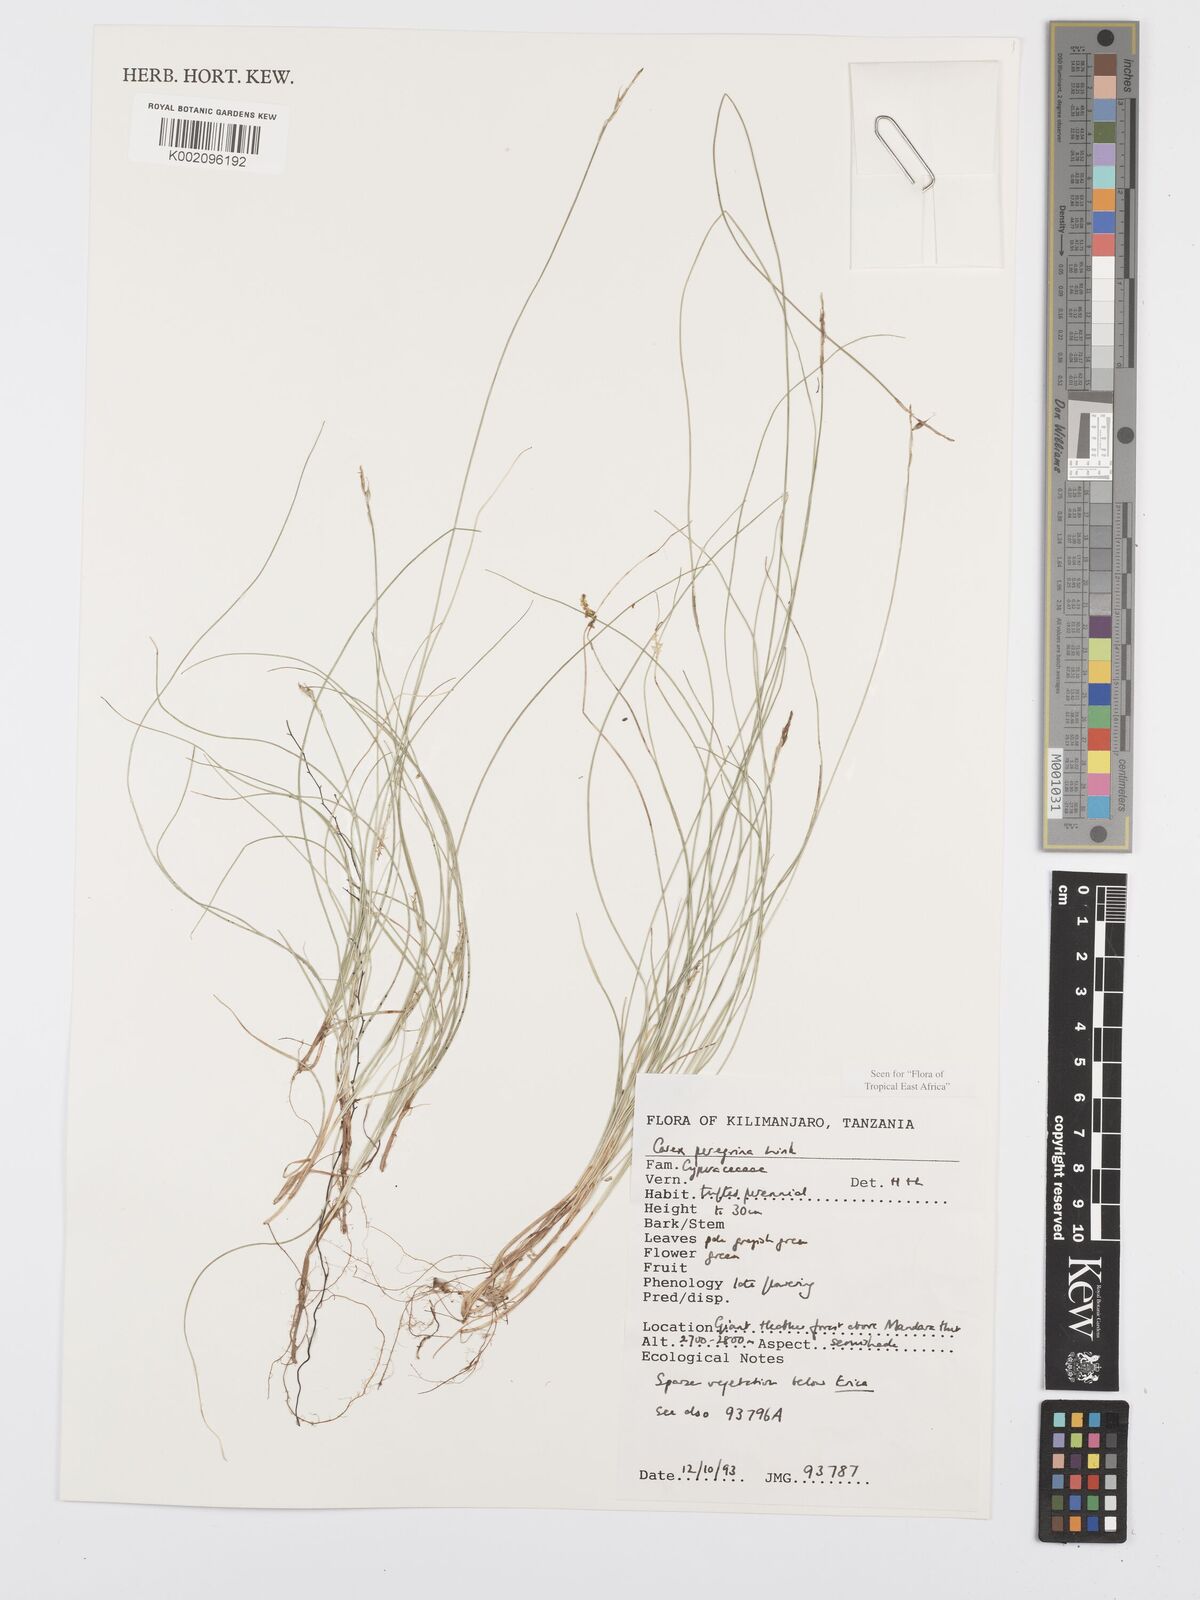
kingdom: Plantae
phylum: Tracheophyta
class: Liliopsida
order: Poales
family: Cyperaceae
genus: Carex
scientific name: Carex peregrina
